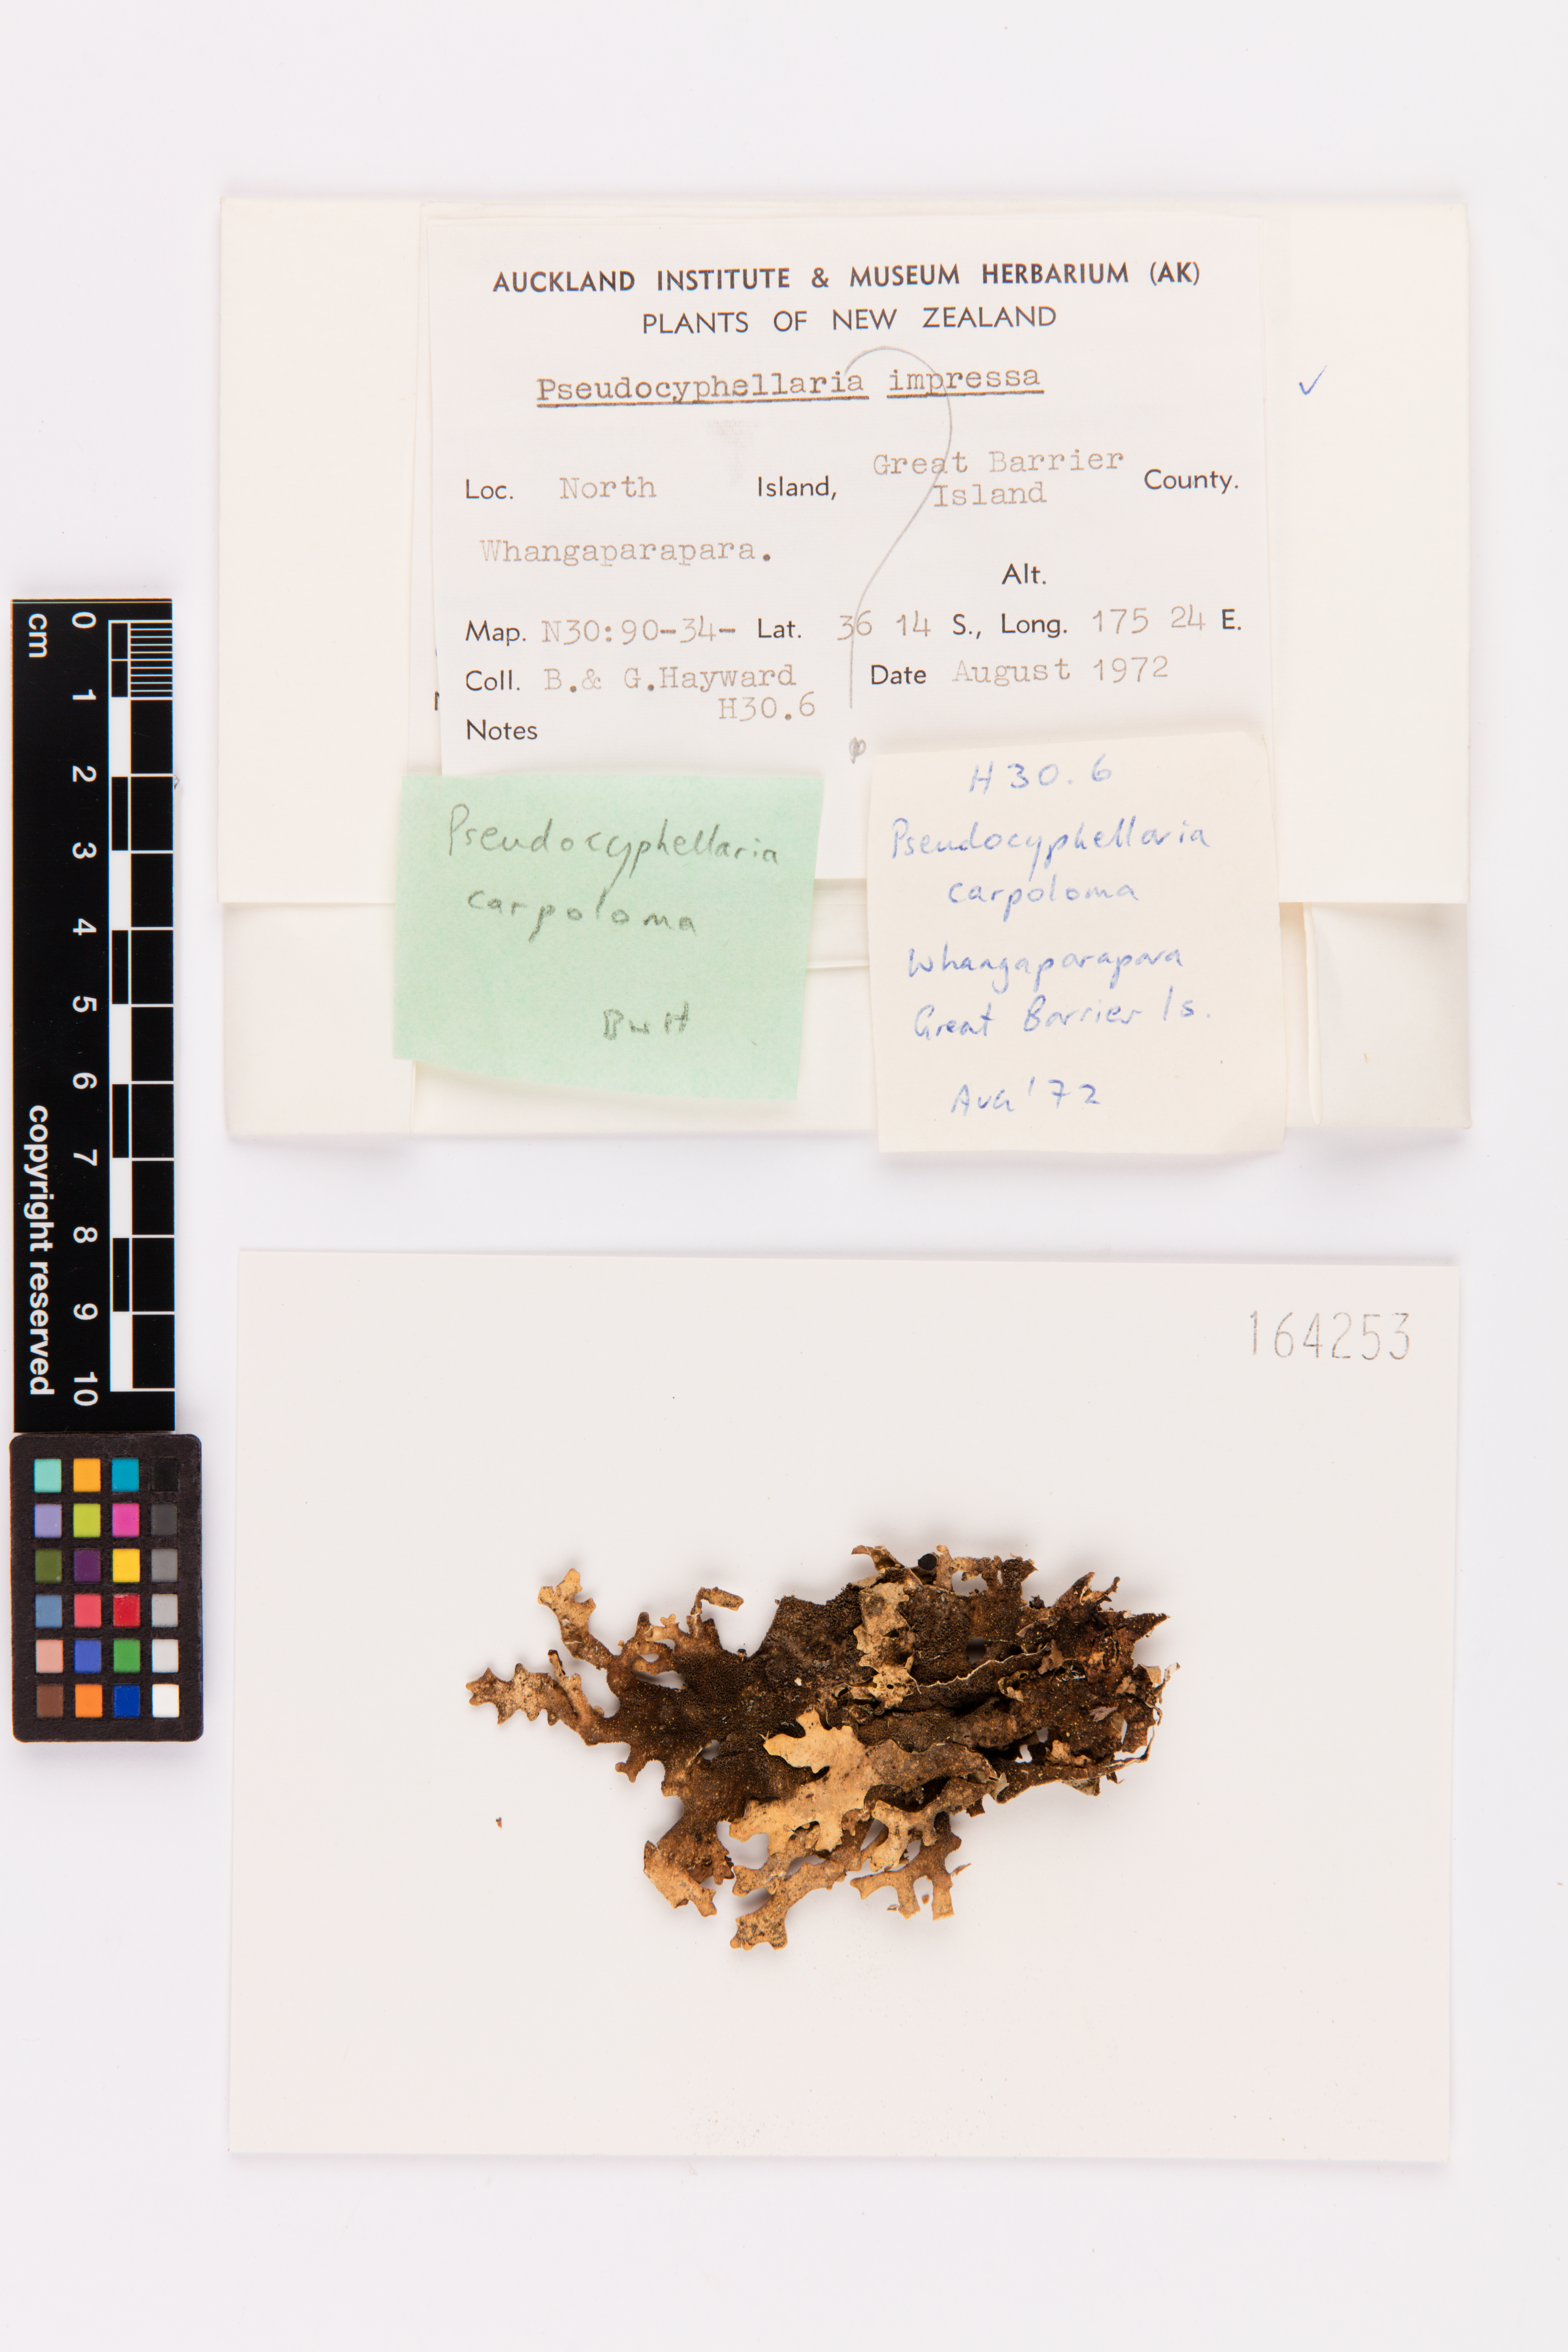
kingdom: Fungi
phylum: Ascomycota
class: Lecanoromycetes
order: Peltigerales
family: Lobariaceae
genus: Pseudocyphellaria
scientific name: Pseudocyphellaria carpoloma
